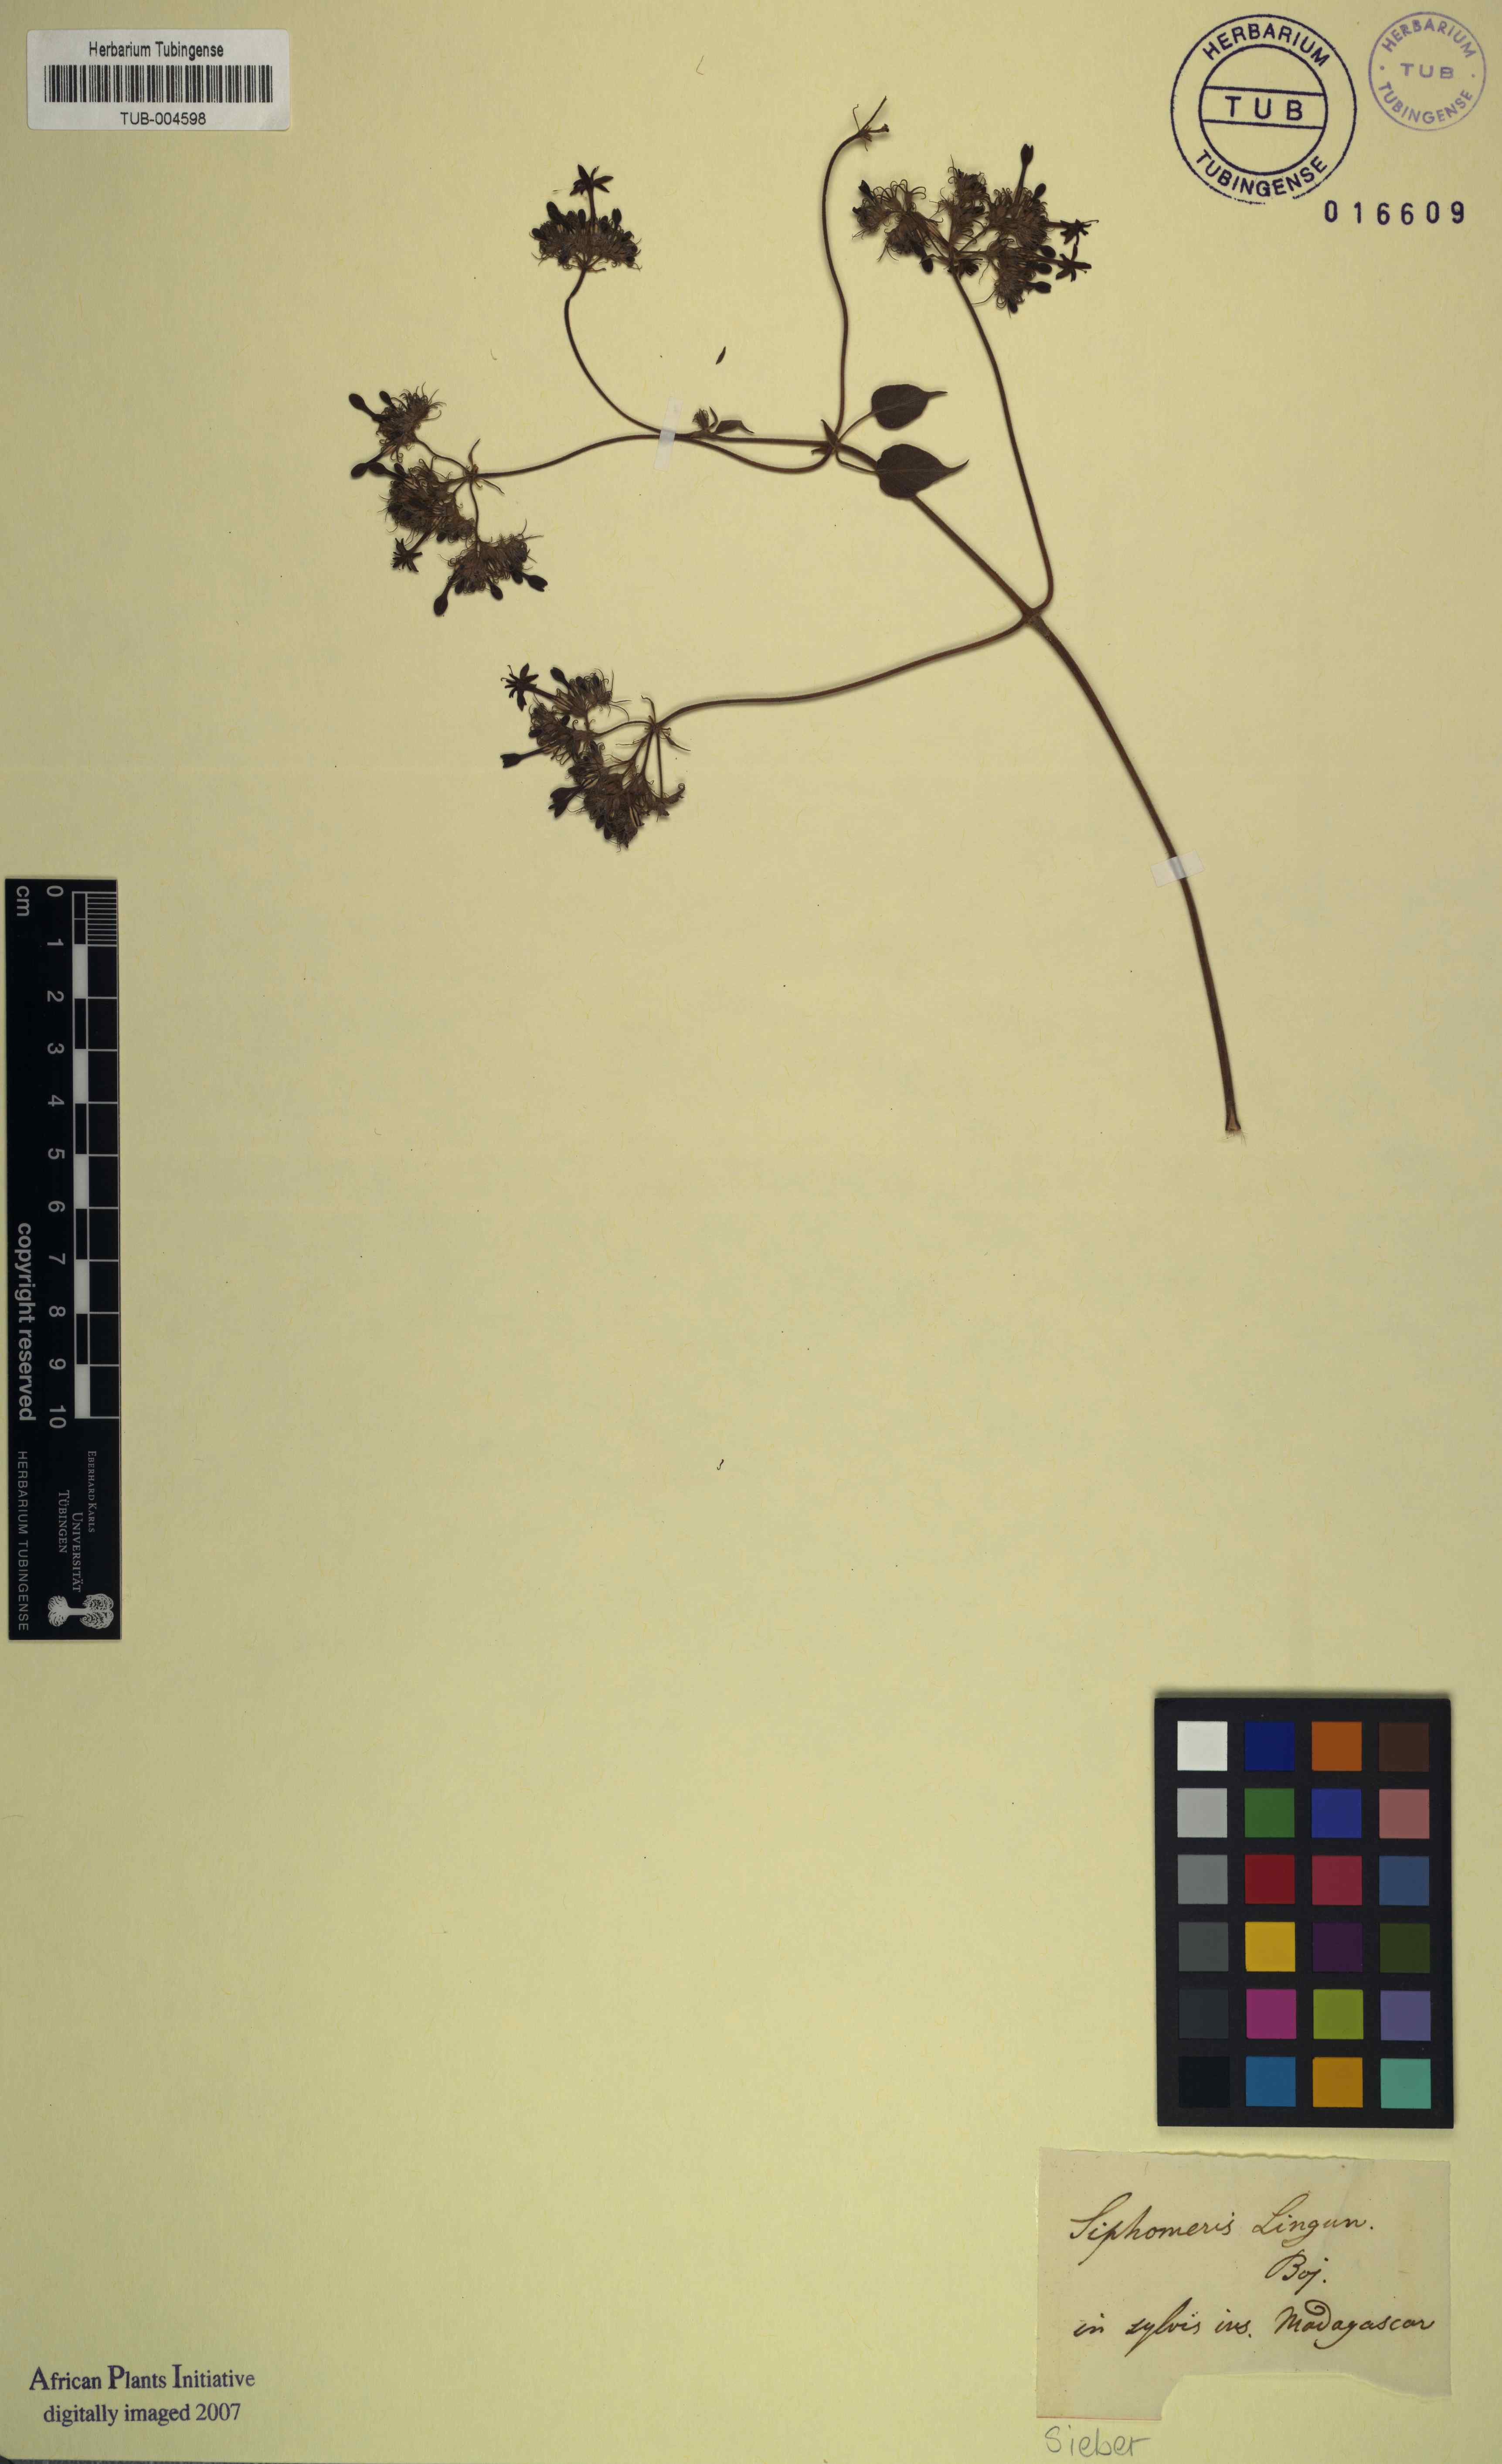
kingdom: Plantae
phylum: Tracheophyta
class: Magnoliopsida
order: Gentianales
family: Rubiaceae
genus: Paederia
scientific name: Paederia bojeriana
